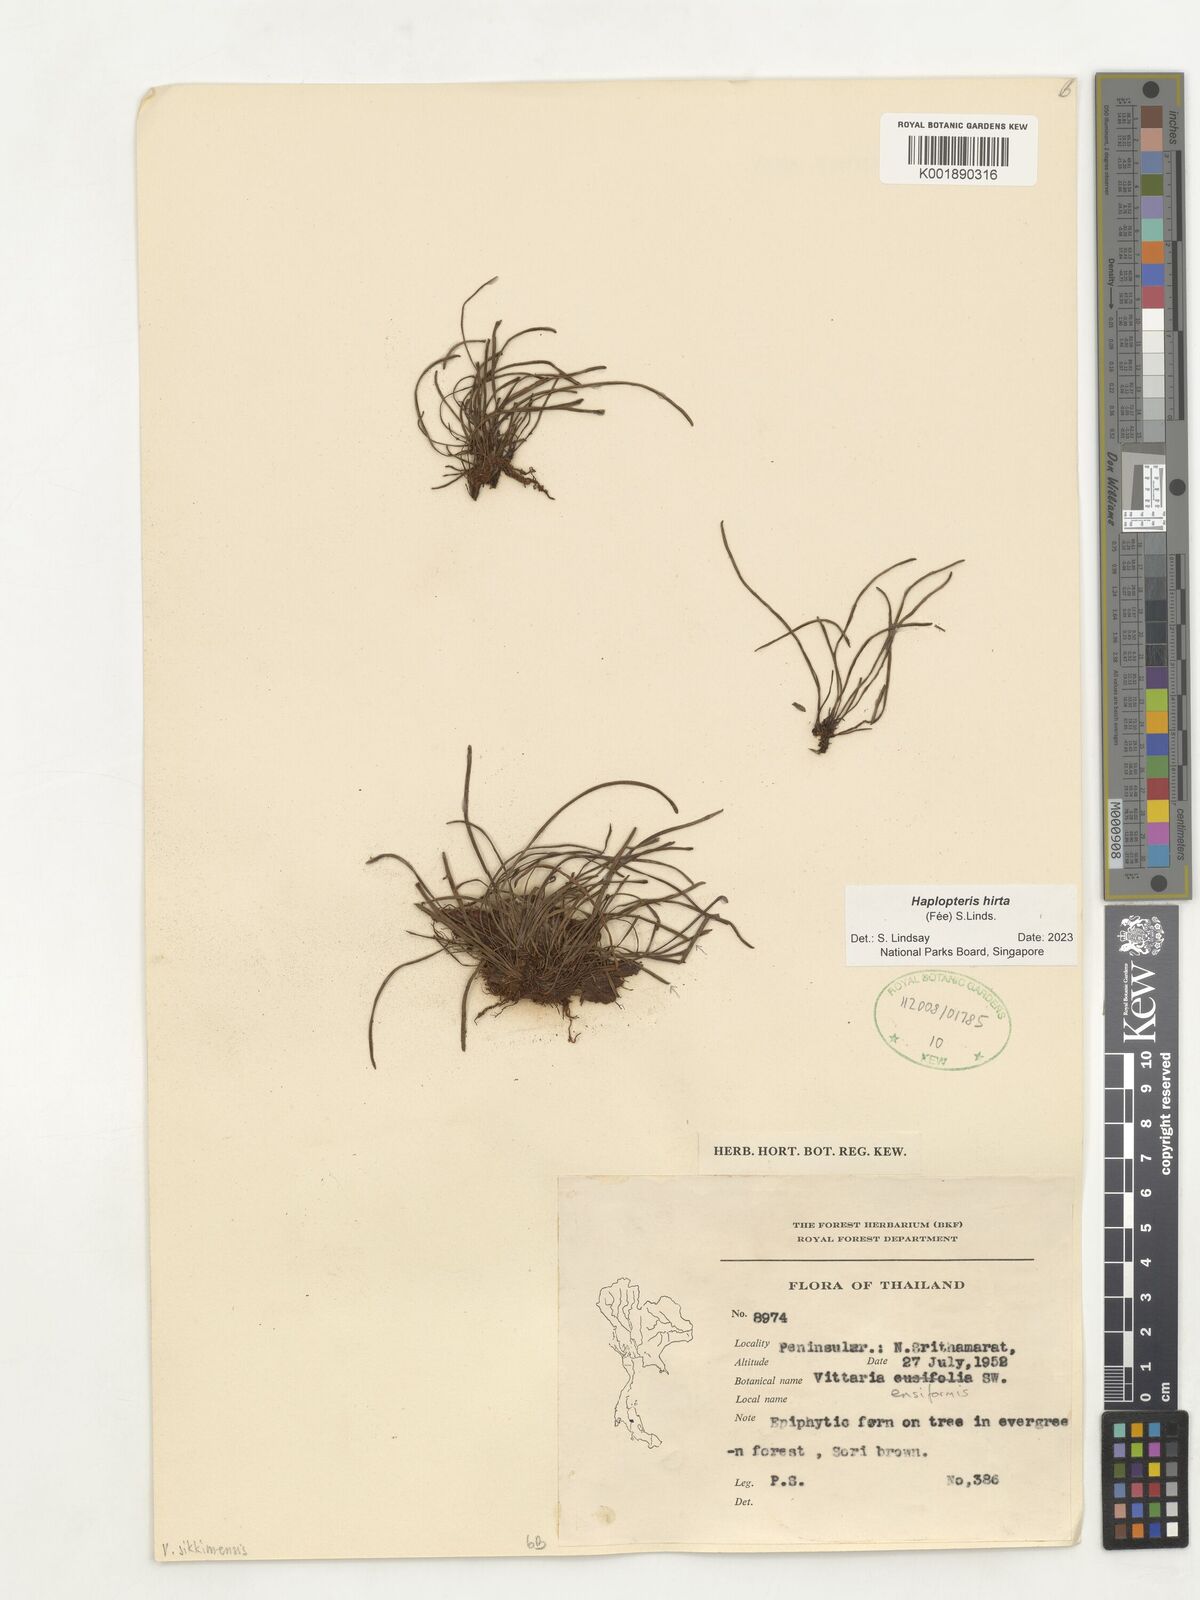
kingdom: Plantae
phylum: Tracheophyta
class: Polypodiopsida
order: Polypodiales
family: Pteridaceae
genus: Haplopteris
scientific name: Haplopteris hirta
